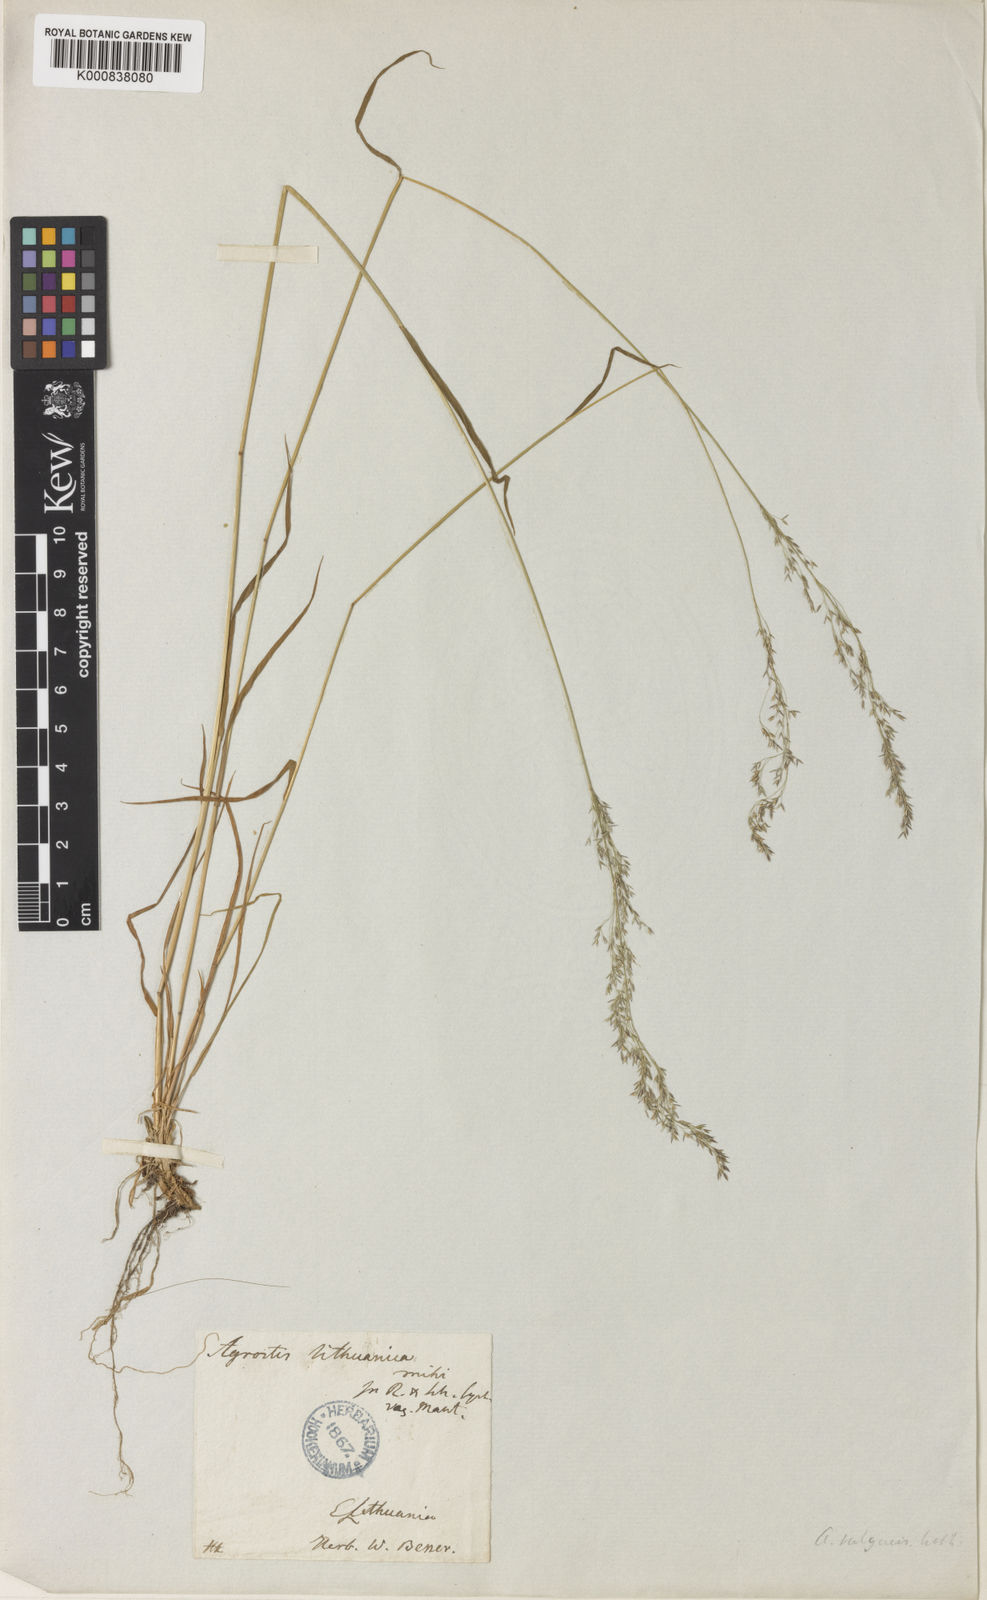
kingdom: Plantae
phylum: Tracheophyta
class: Liliopsida
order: Poales
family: Poaceae
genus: Agrostis
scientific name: Agrostis capillaris
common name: Colonial bentgrass
